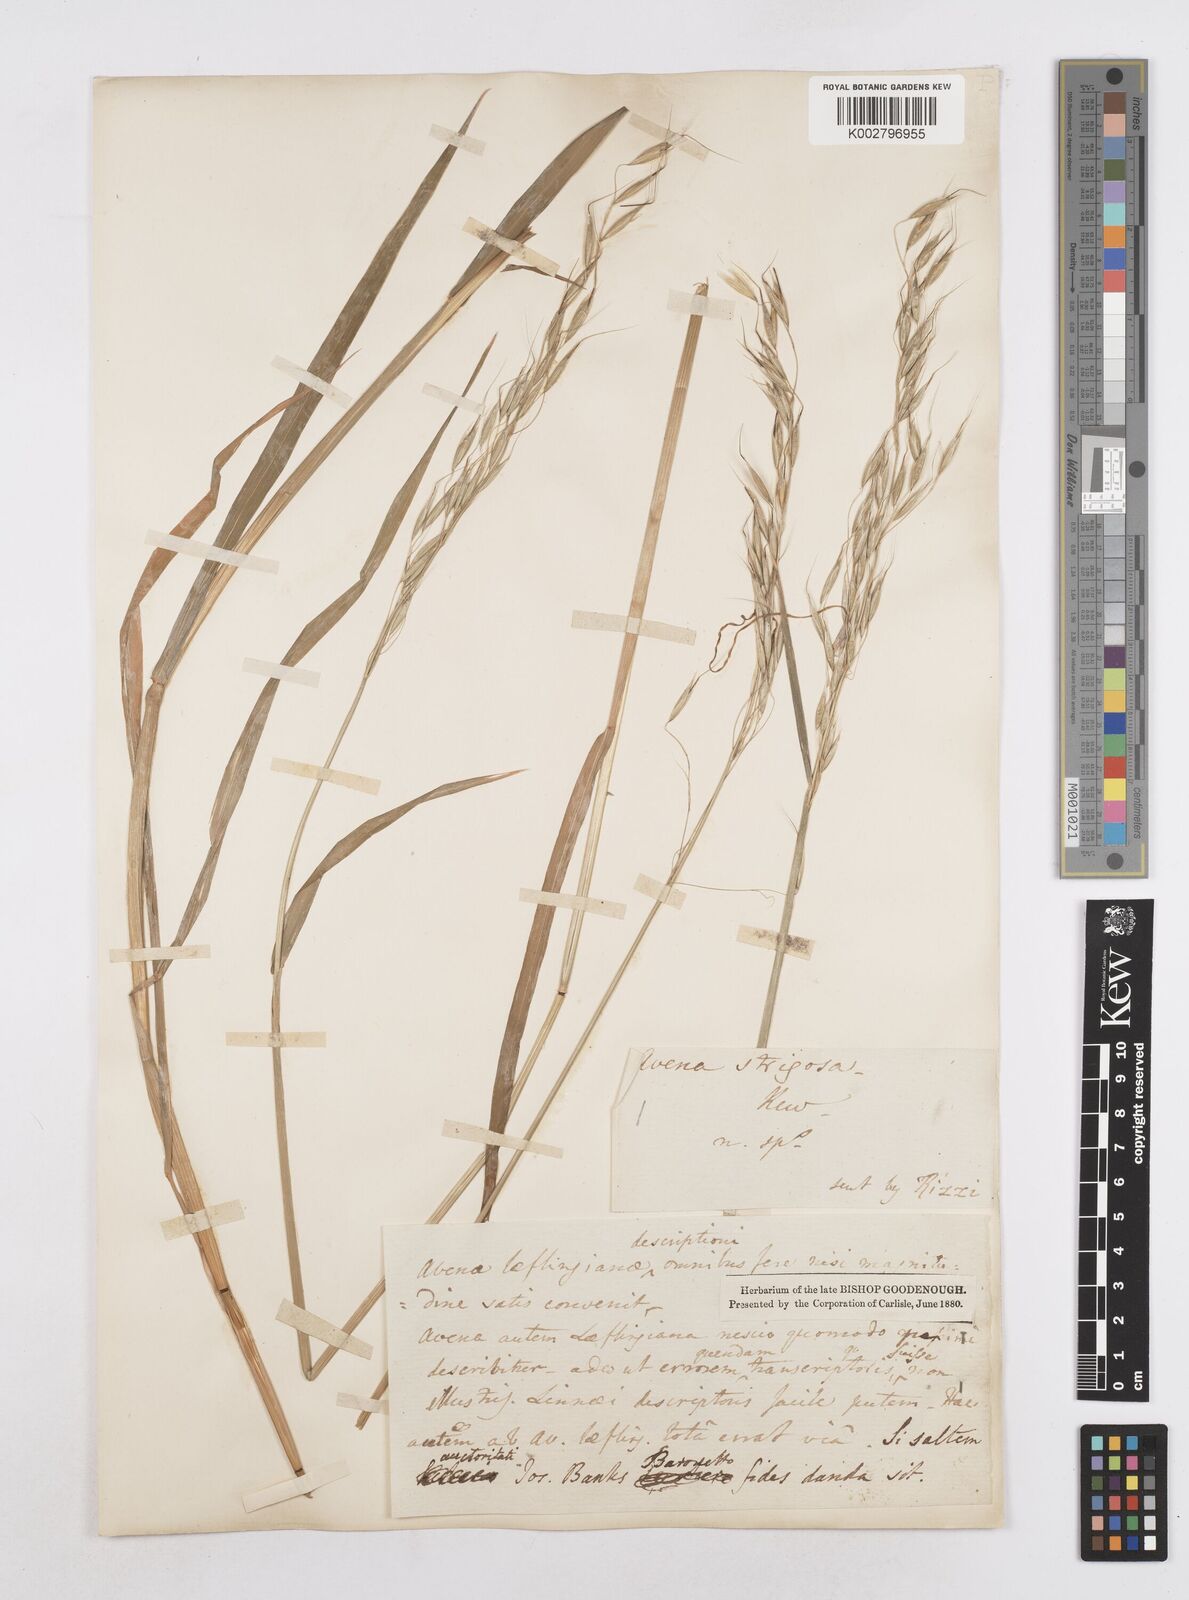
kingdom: Plantae
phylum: Tracheophyta
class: Liliopsida
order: Poales
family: Poaceae
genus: Avena
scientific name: Avena strigosa
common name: Bristle oat
